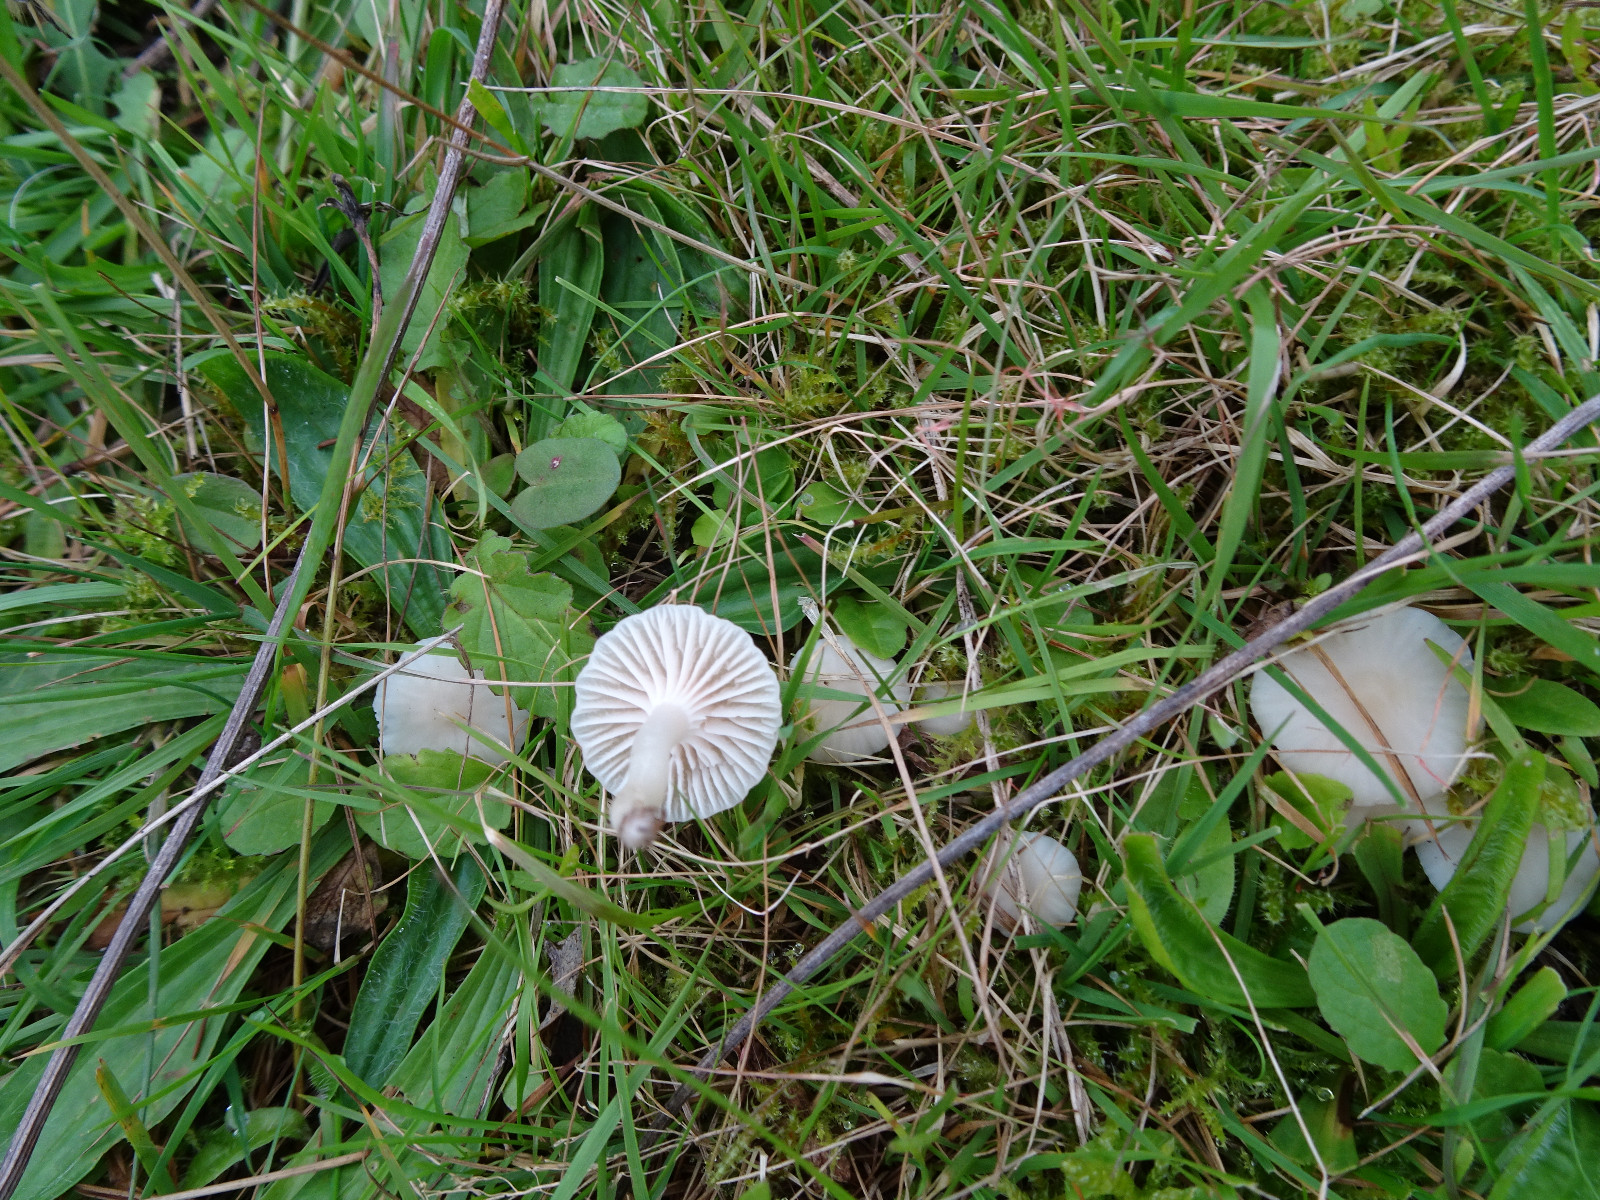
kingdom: Fungi
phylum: Basidiomycota
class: Agaricomycetes
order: Agaricales
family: Hygrophoraceae
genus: Cuphophyllus
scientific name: Cuphophyllus virgineus
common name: snehvid vokshat
